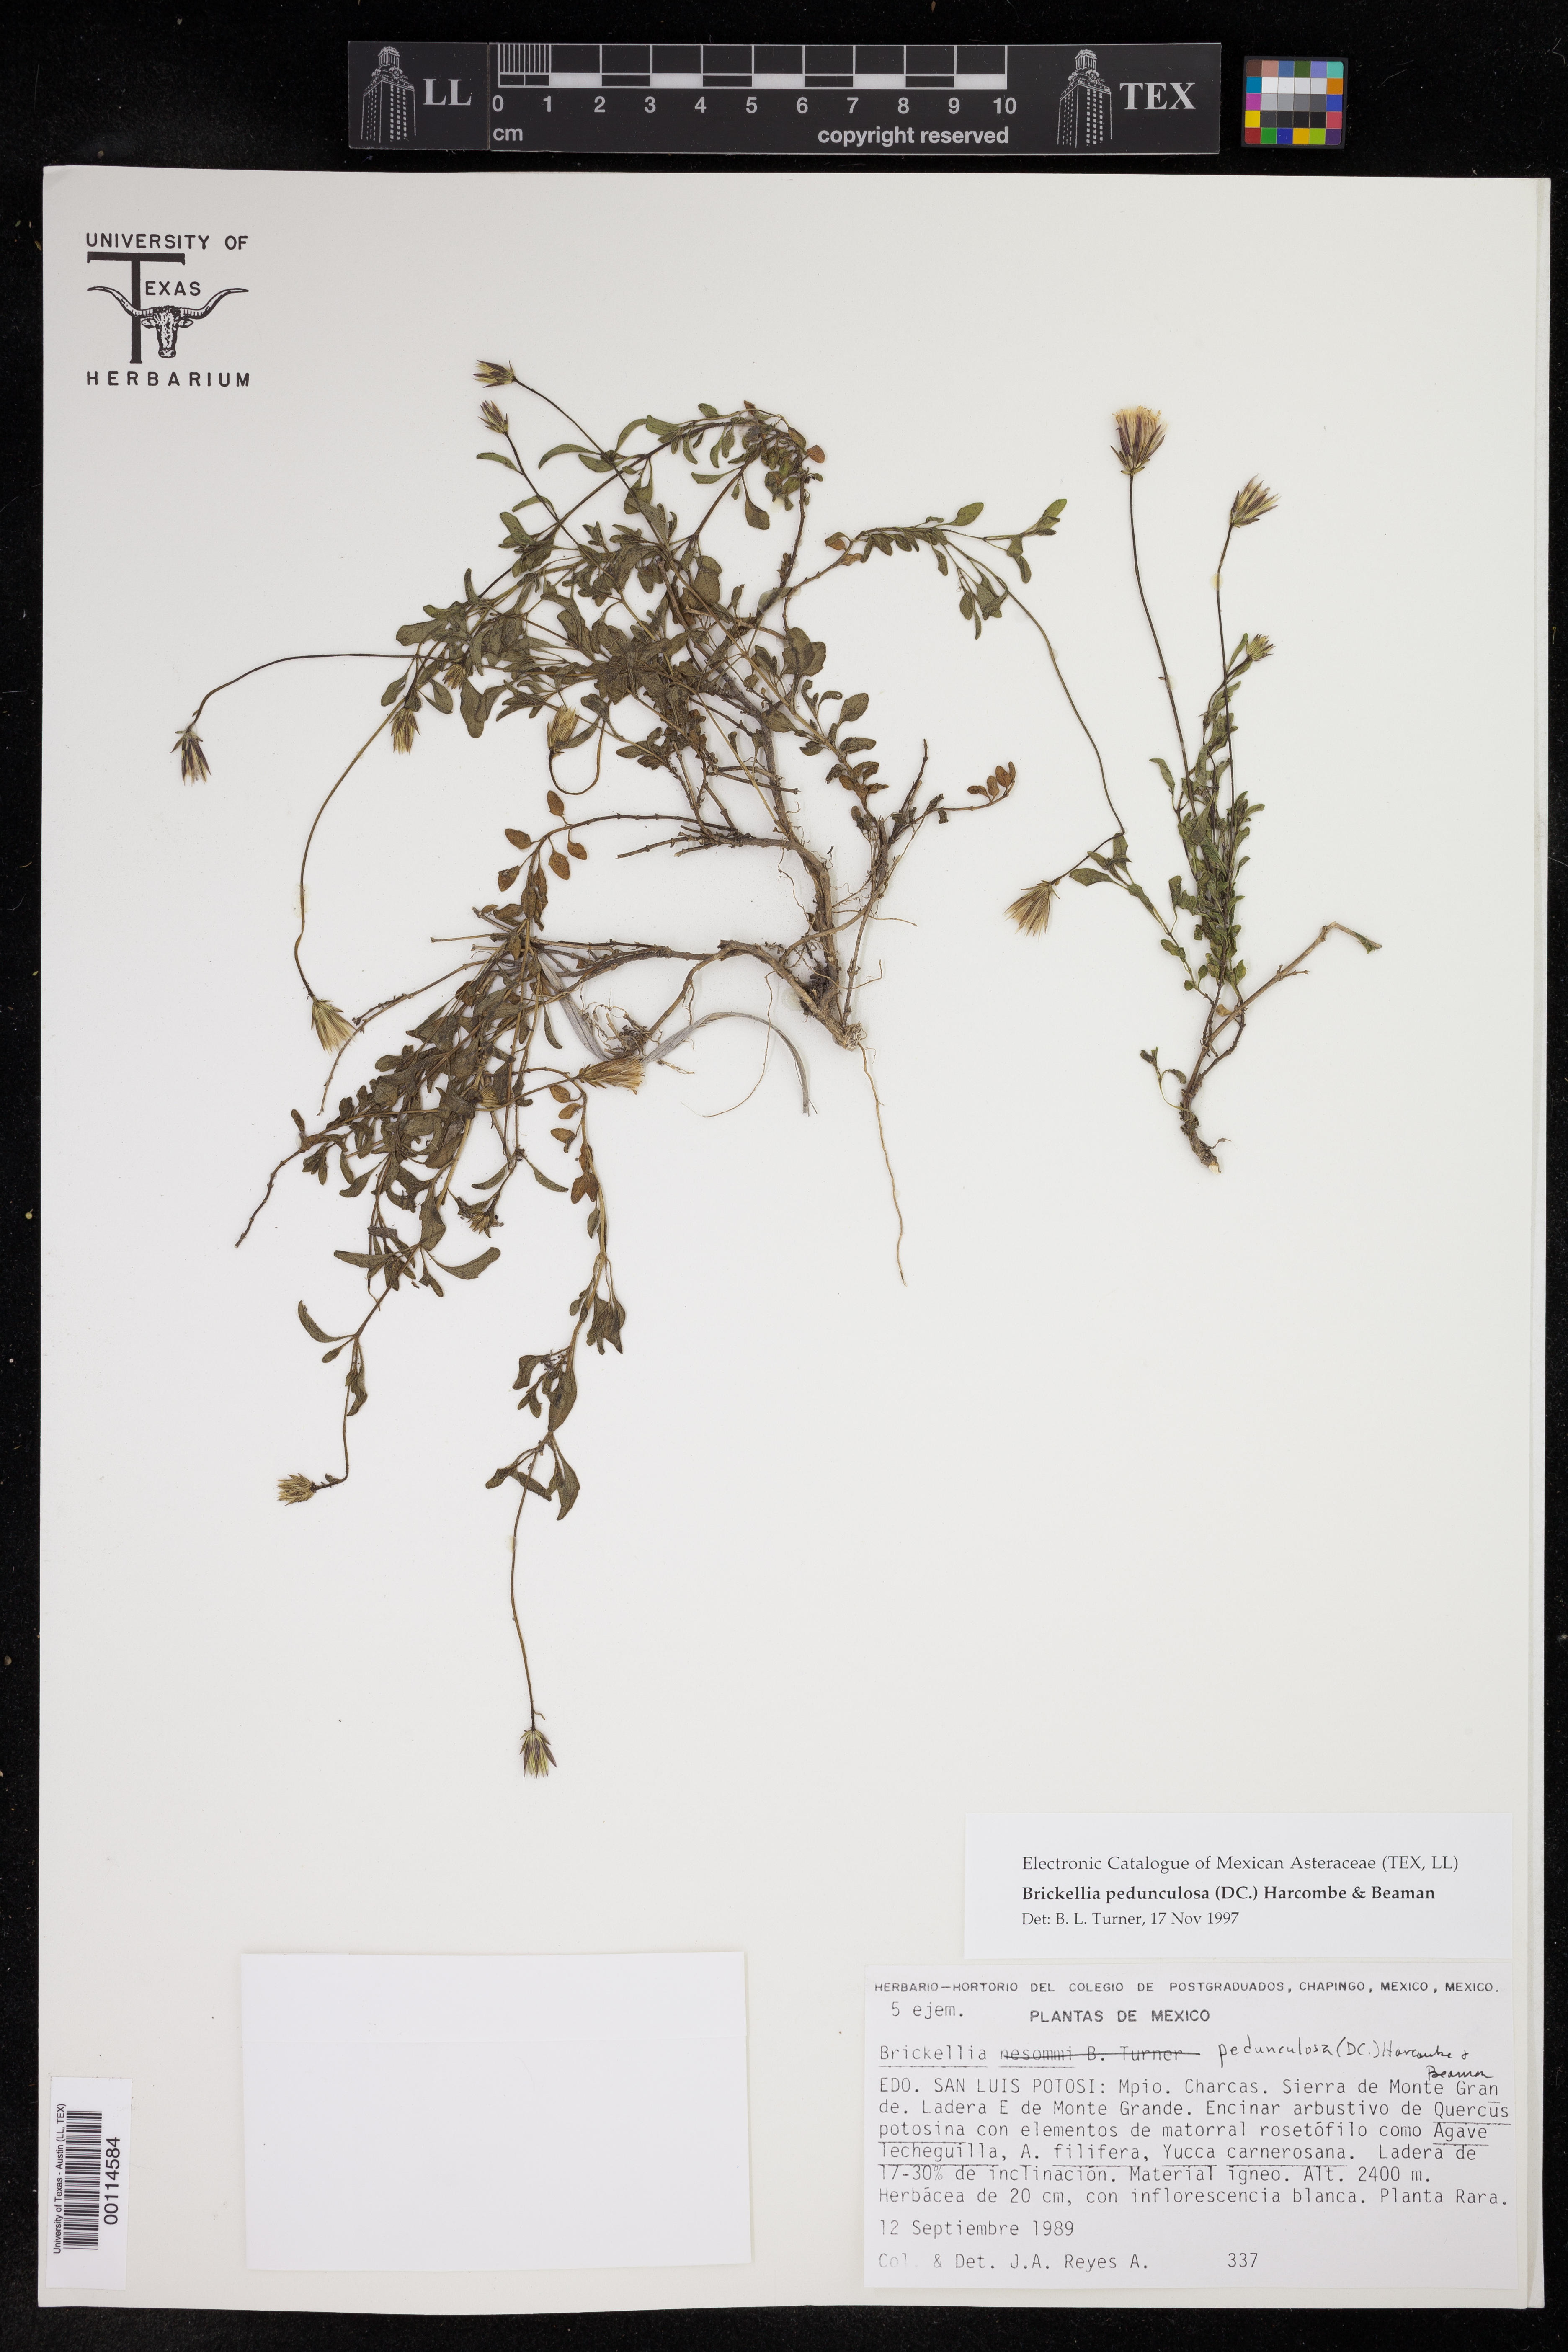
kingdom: Plantae
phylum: Tracheophyta
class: Magnoliopsida
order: Asterales
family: Asteraceae
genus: Brickellia
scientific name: Brickellia pedunculosa
